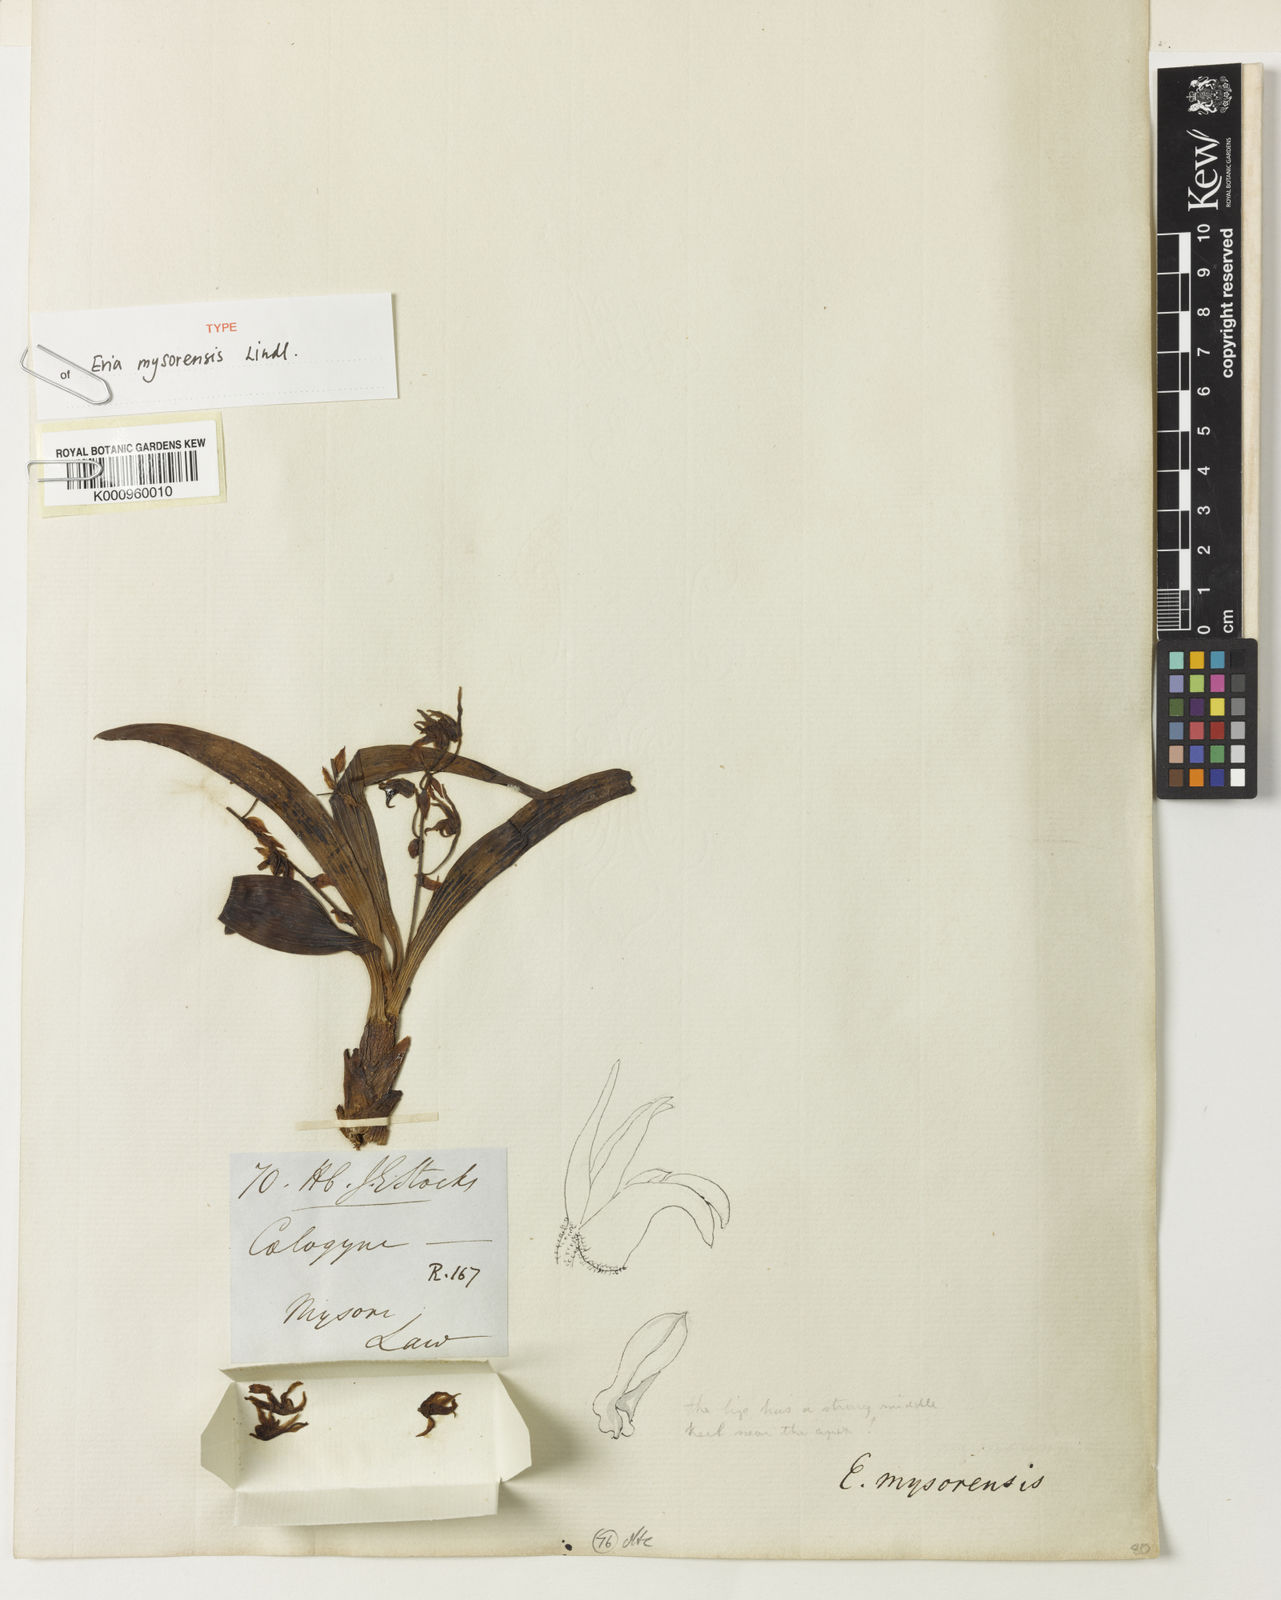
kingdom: Plantae
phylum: Tracheophyta
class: Liliopsida
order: Asparagales
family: Orchidaceae
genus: Pinalia
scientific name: Pinalia mysorensis
